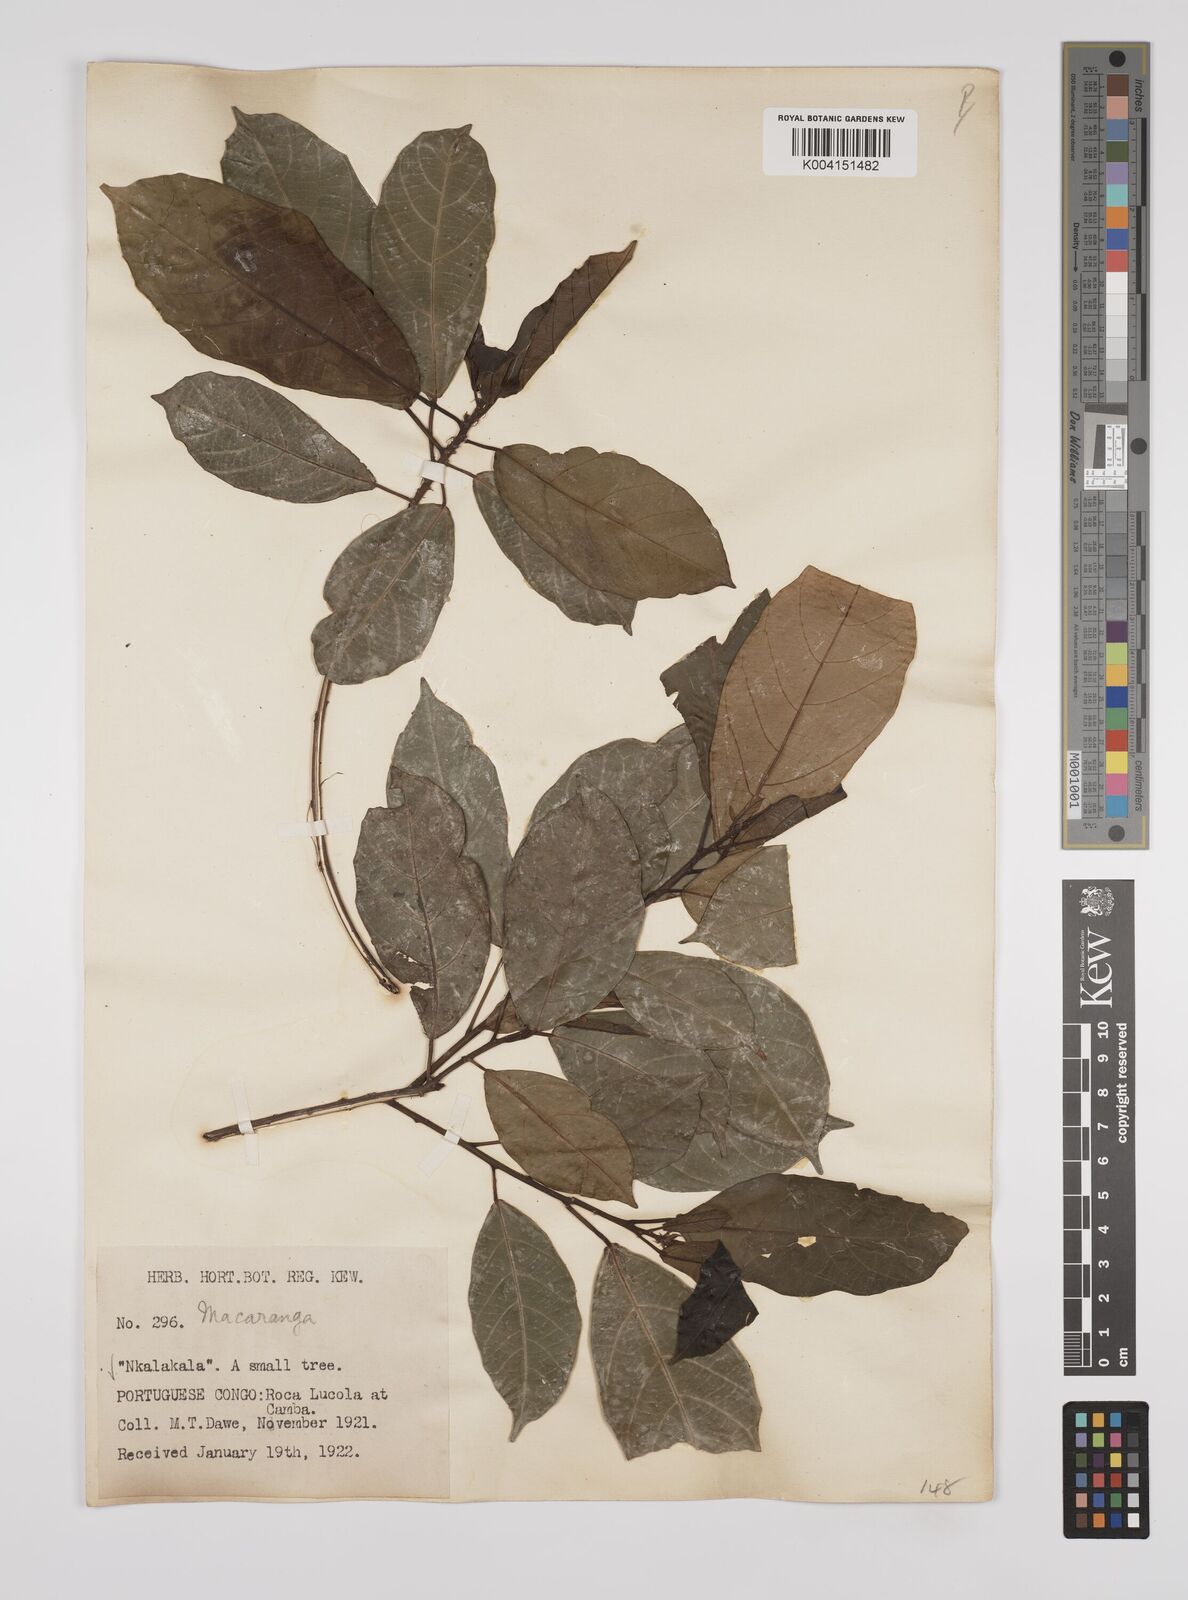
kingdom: Plantae
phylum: Tracheophyta
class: Magnoliopsida
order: Malpighiales
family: Euphorbiaceae
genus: Macaranga
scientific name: Macaranga barteri
